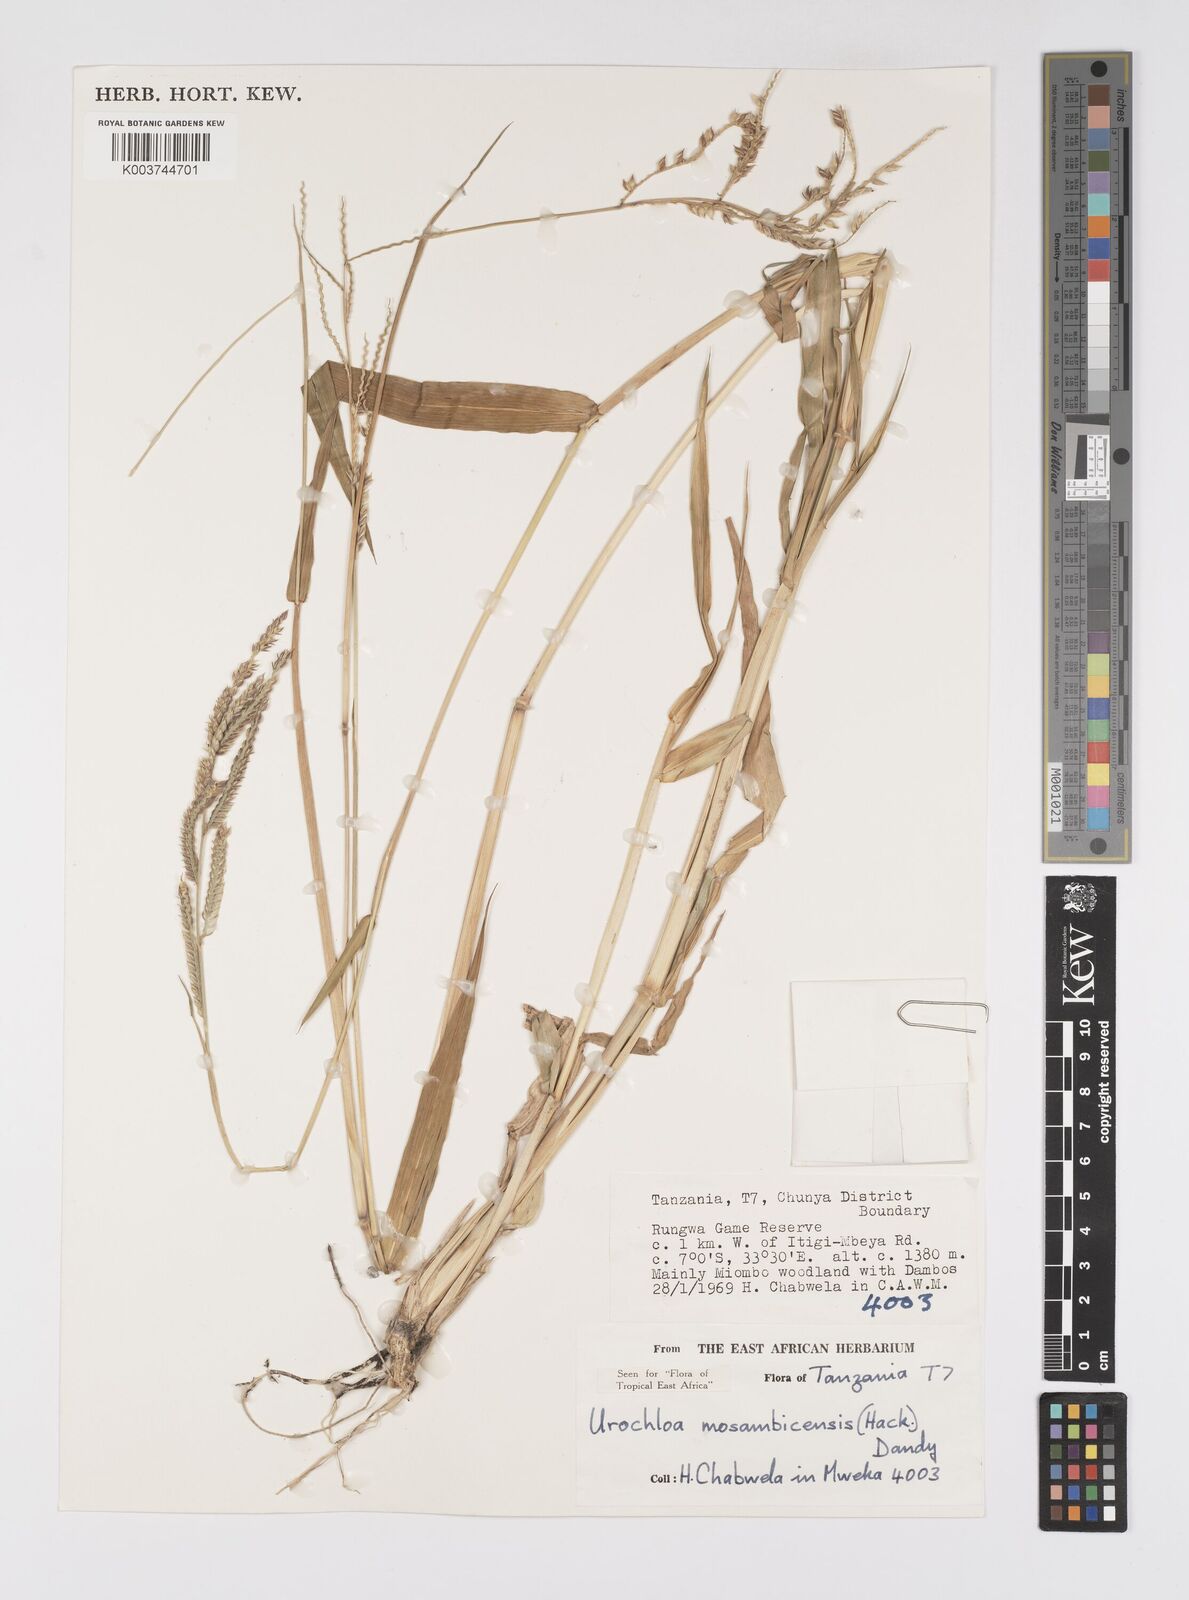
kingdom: Plantae
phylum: Tracheophyta
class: Liliopsida
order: Poales
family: Poaceae
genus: Urochloa
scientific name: Urochloa trichopus
